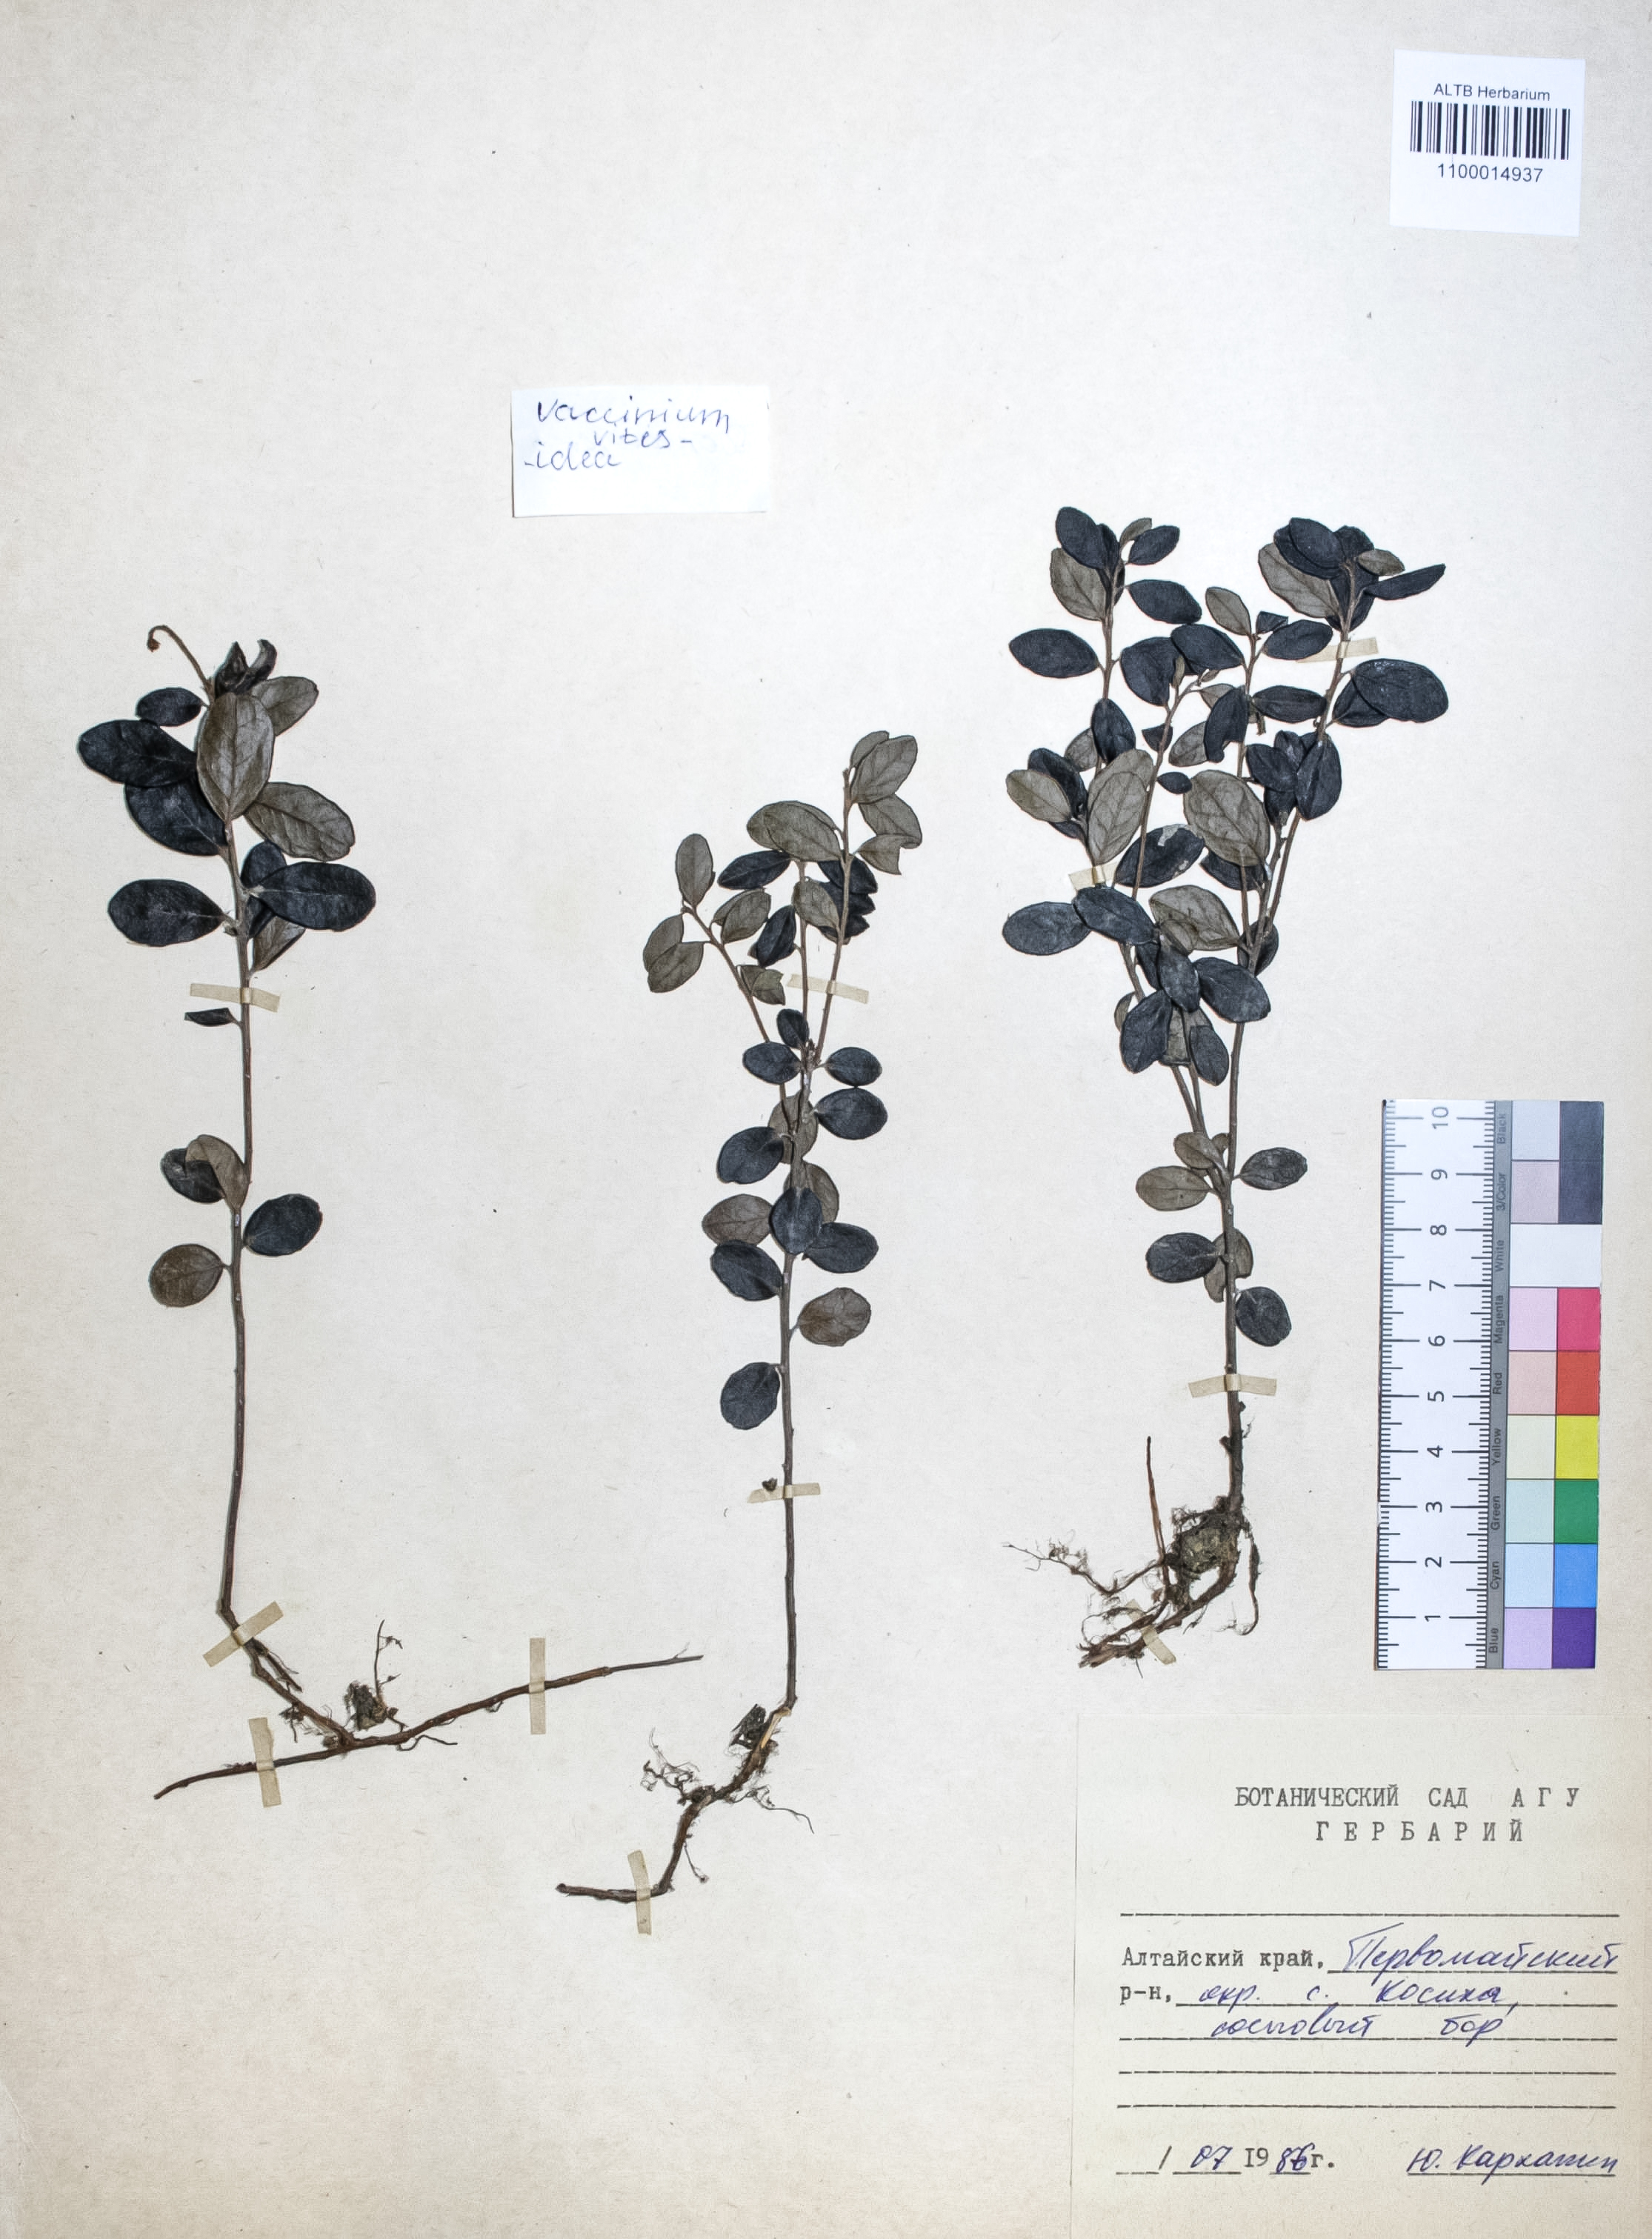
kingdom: Plantae
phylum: Tracheophyta
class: Magnoliopsida
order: Ericales
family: Ericaceae
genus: Vaccinium
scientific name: Vaccinium vitis-idaea
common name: Cowberry
